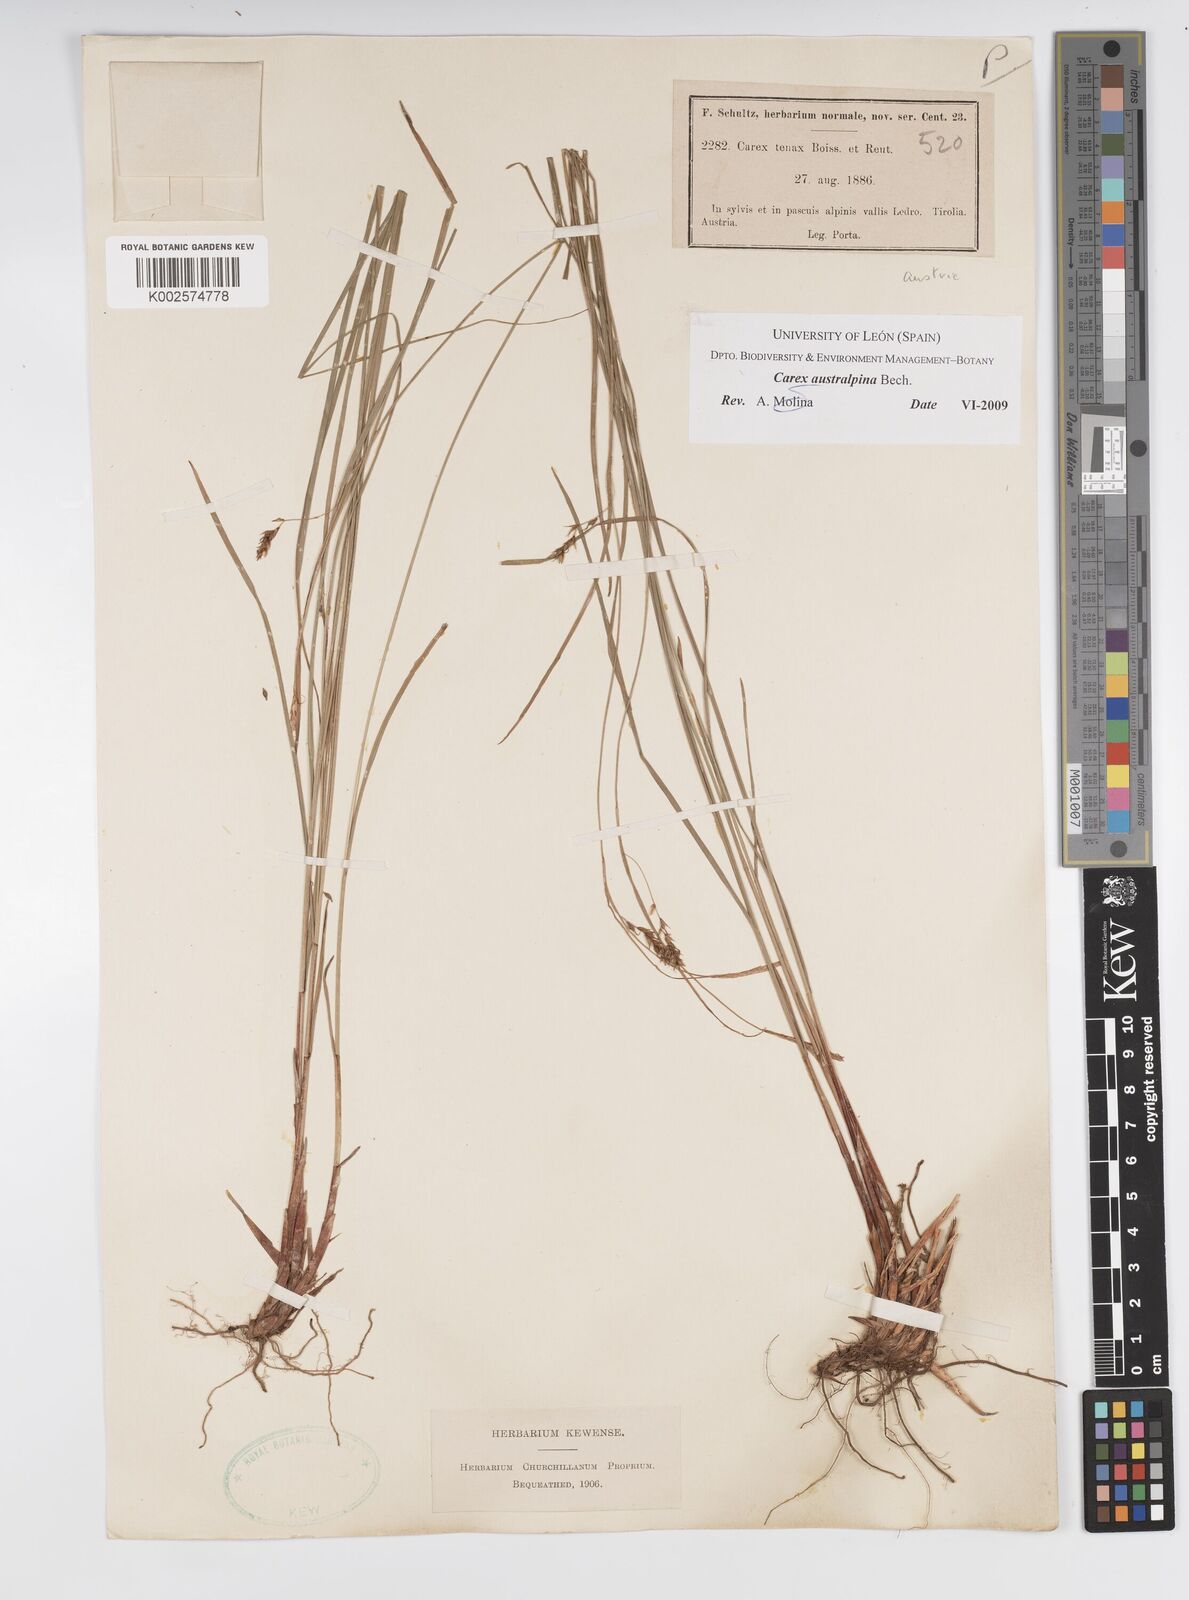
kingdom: Plantae
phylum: Tracheophyta
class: Liliopsida
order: Poales
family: Cyperaceae
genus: Carex
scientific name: Carex austroalpina
